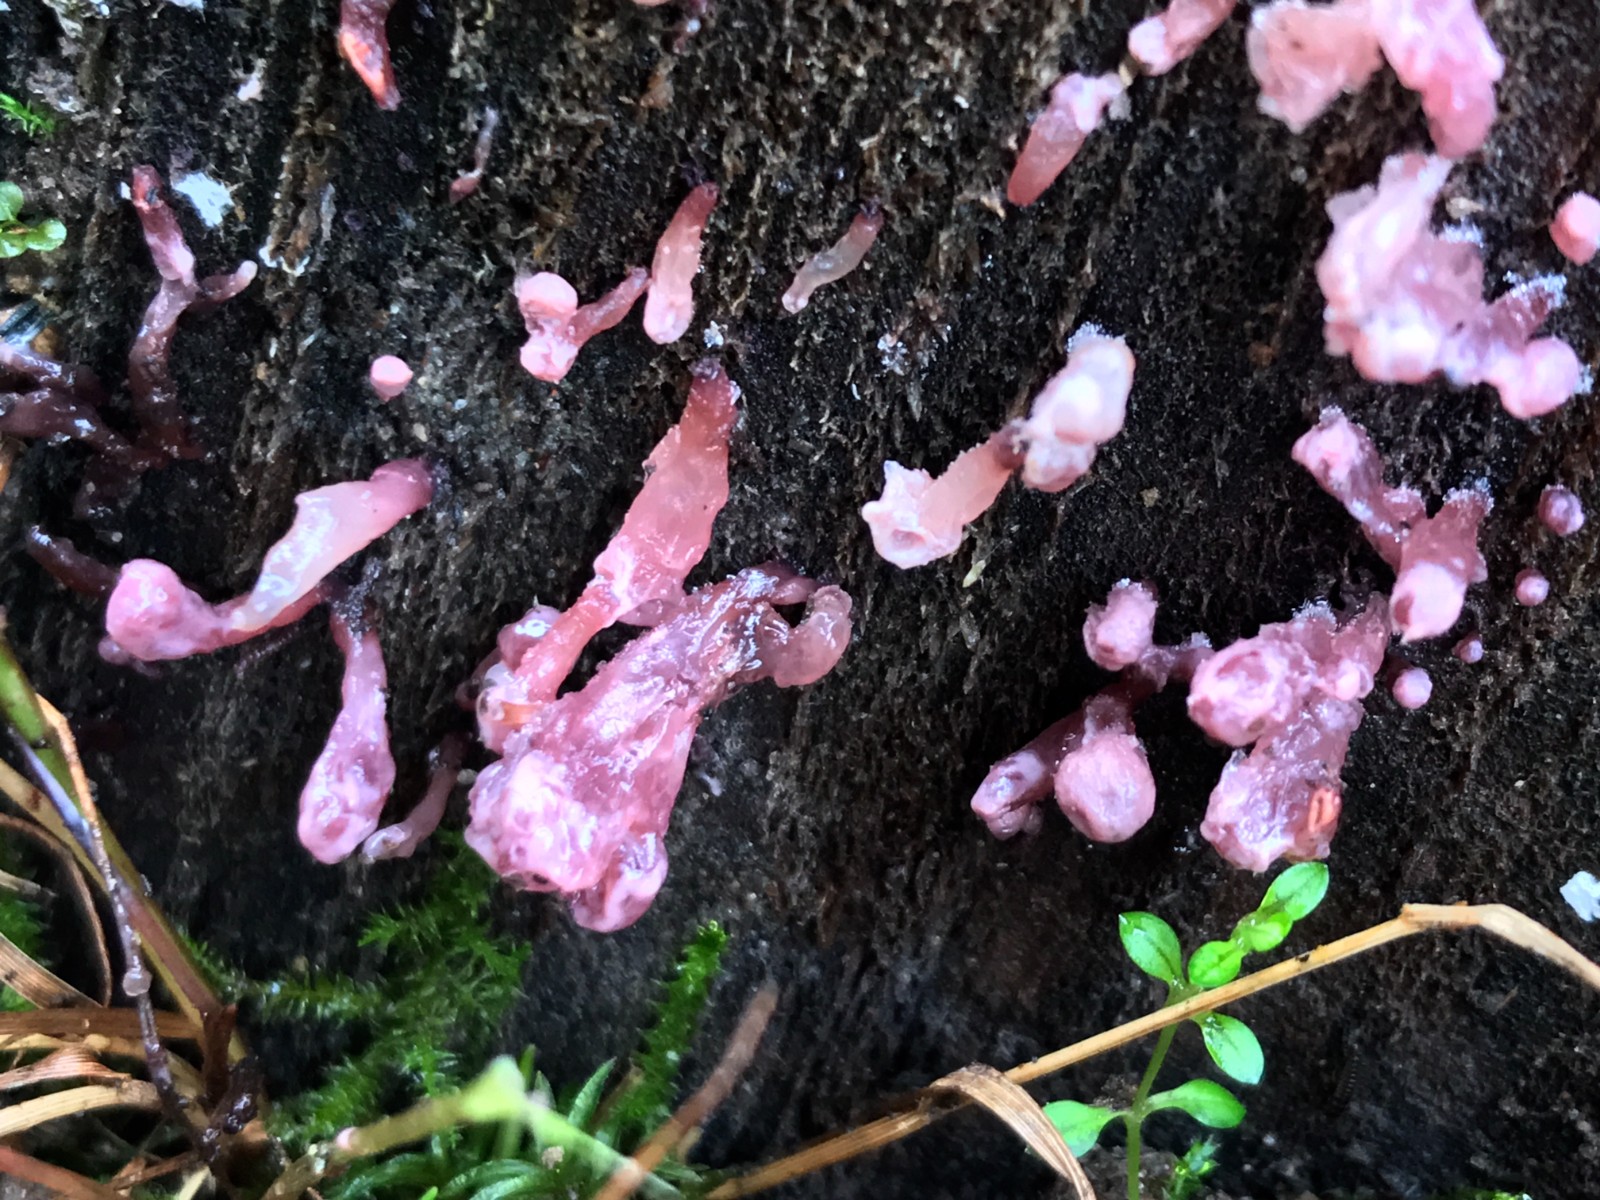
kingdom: Fungi
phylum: Ascomycota
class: Leotiomycetes
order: Helotiales
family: Gelatinodiscaceae
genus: Ascocoryne
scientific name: Ascocoryne sarcoides
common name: rødlilla sejskive
